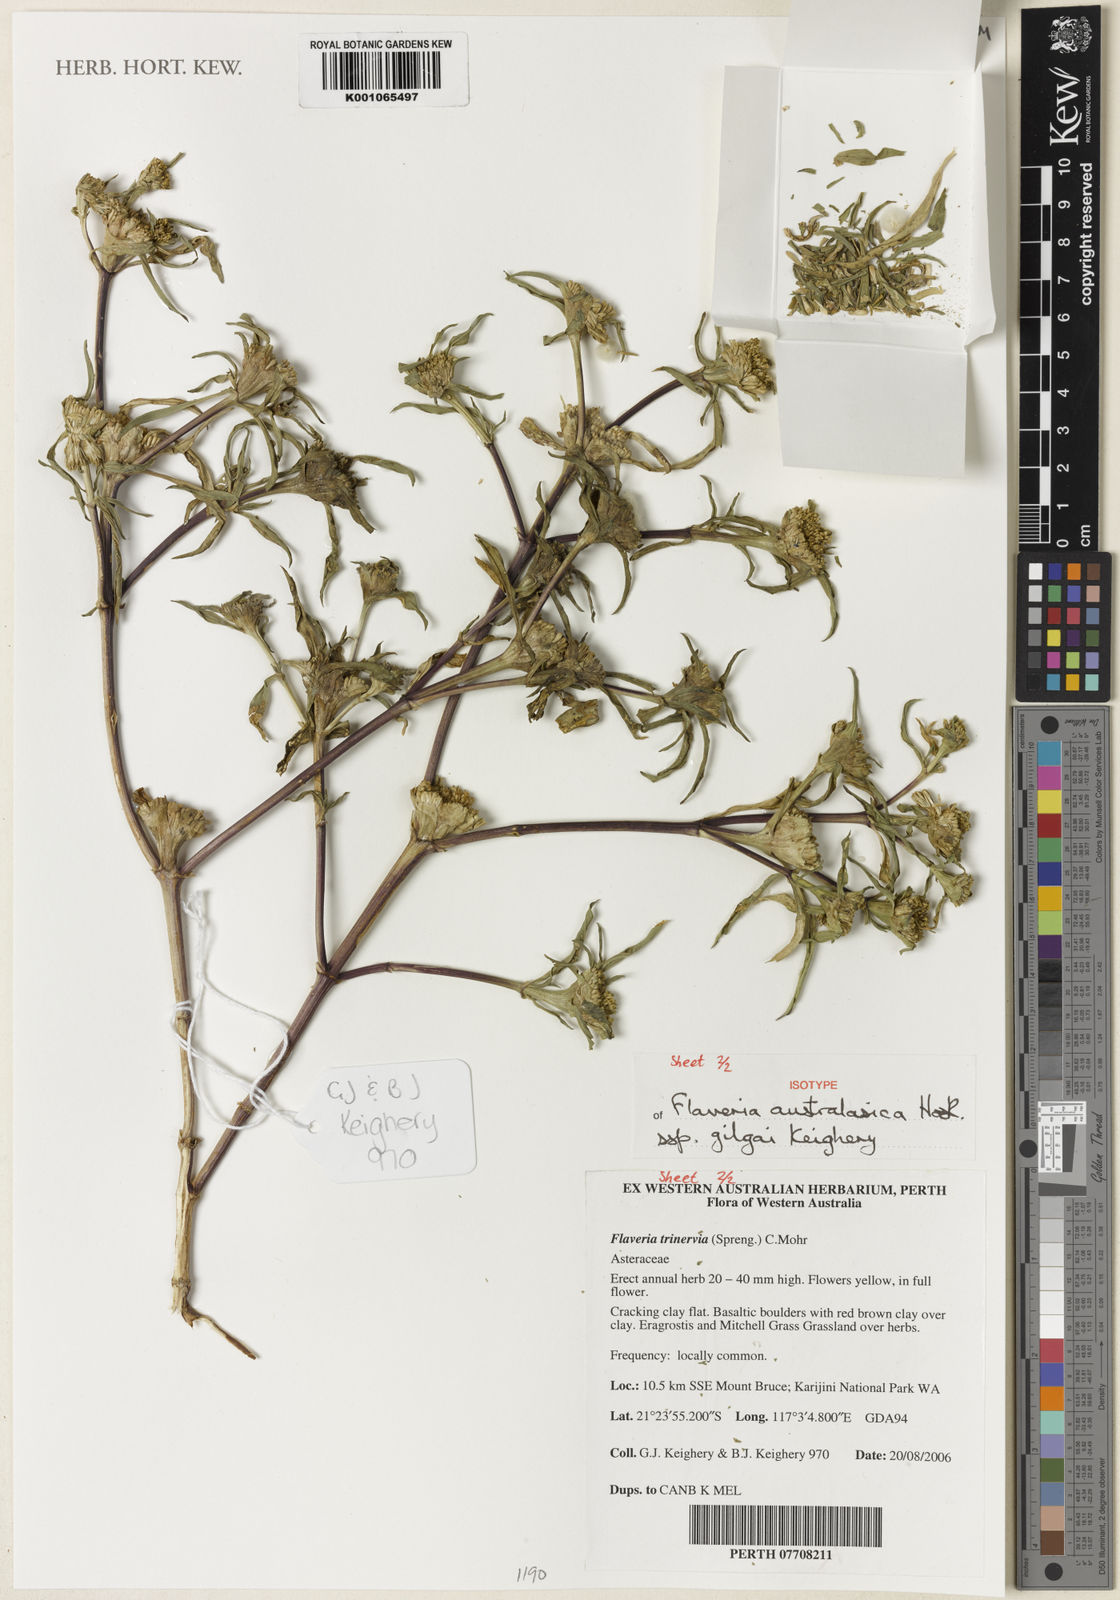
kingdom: Plantae
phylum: Tracheophyta
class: Magnoliopsida
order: Asterales
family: Asteraceae
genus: Flaveria
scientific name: Flaveria trinervia
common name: Clustered yellowtops
